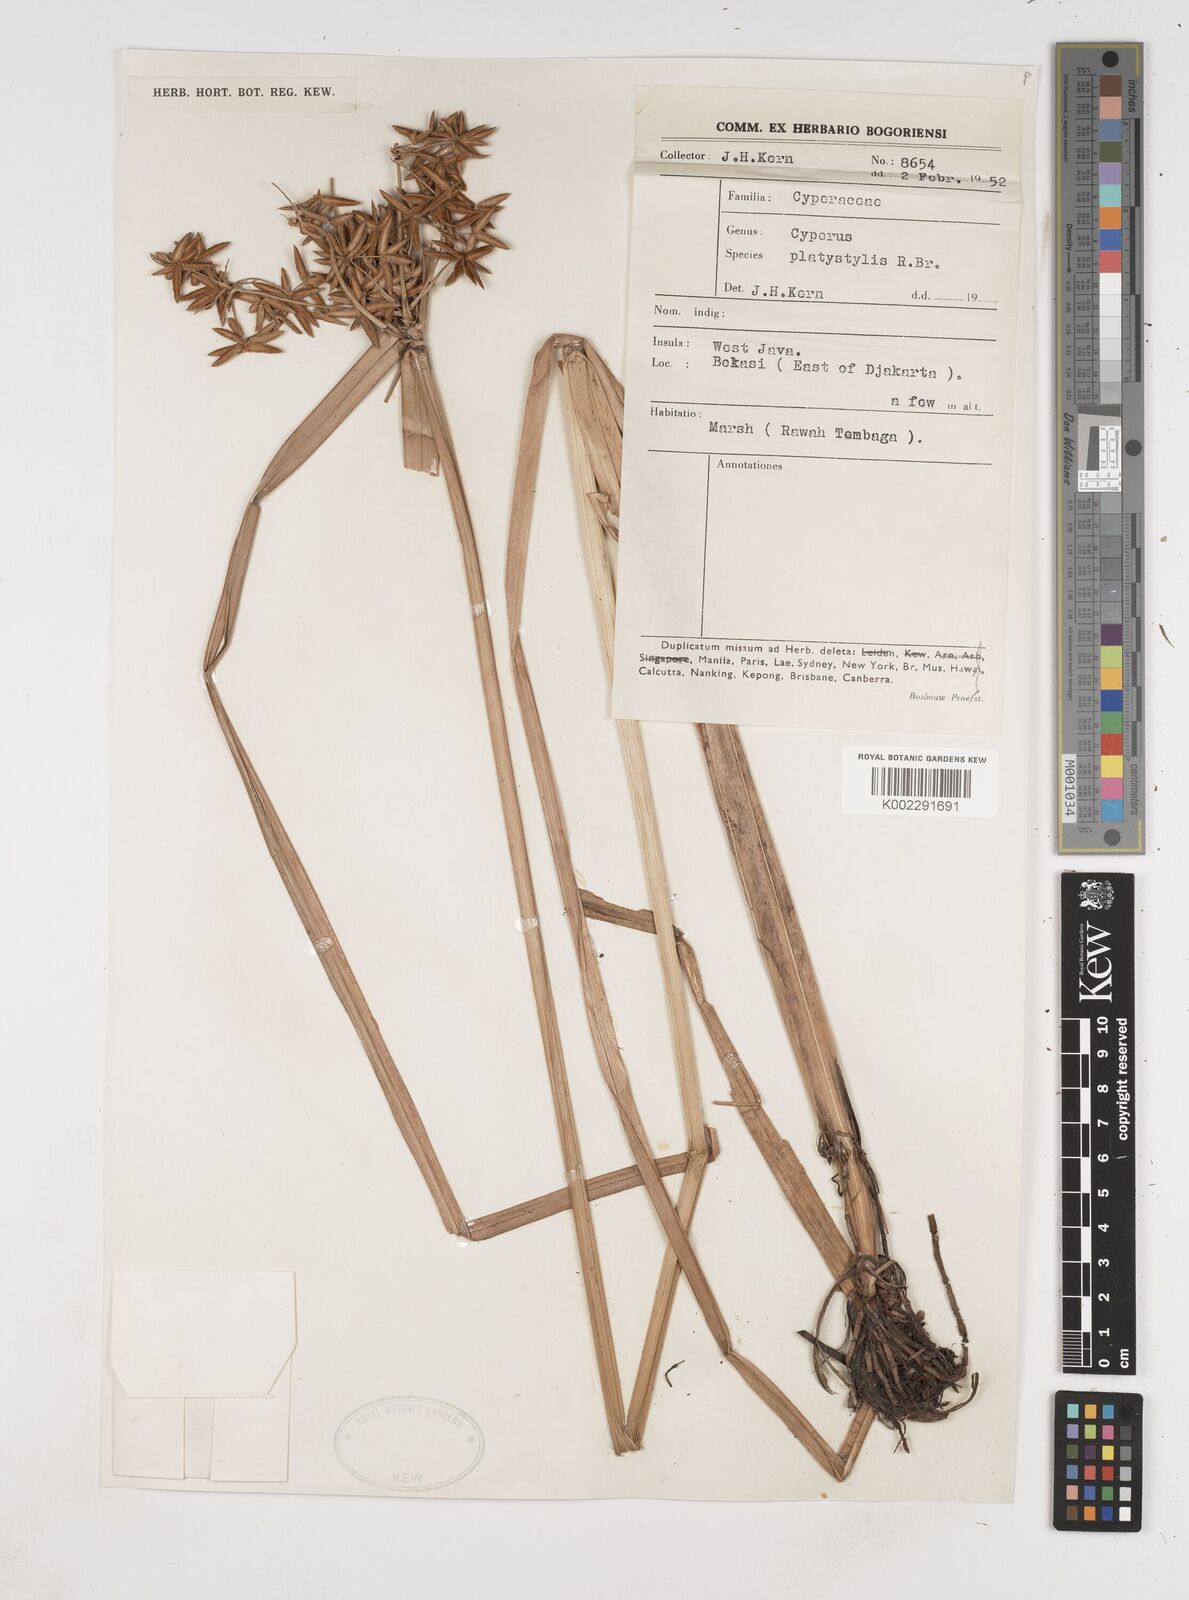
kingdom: Plantae
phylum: Tracheophyta
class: Liliopsida
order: Poales
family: Cyperaceae
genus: Cyperus
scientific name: Cyperus platystylis
